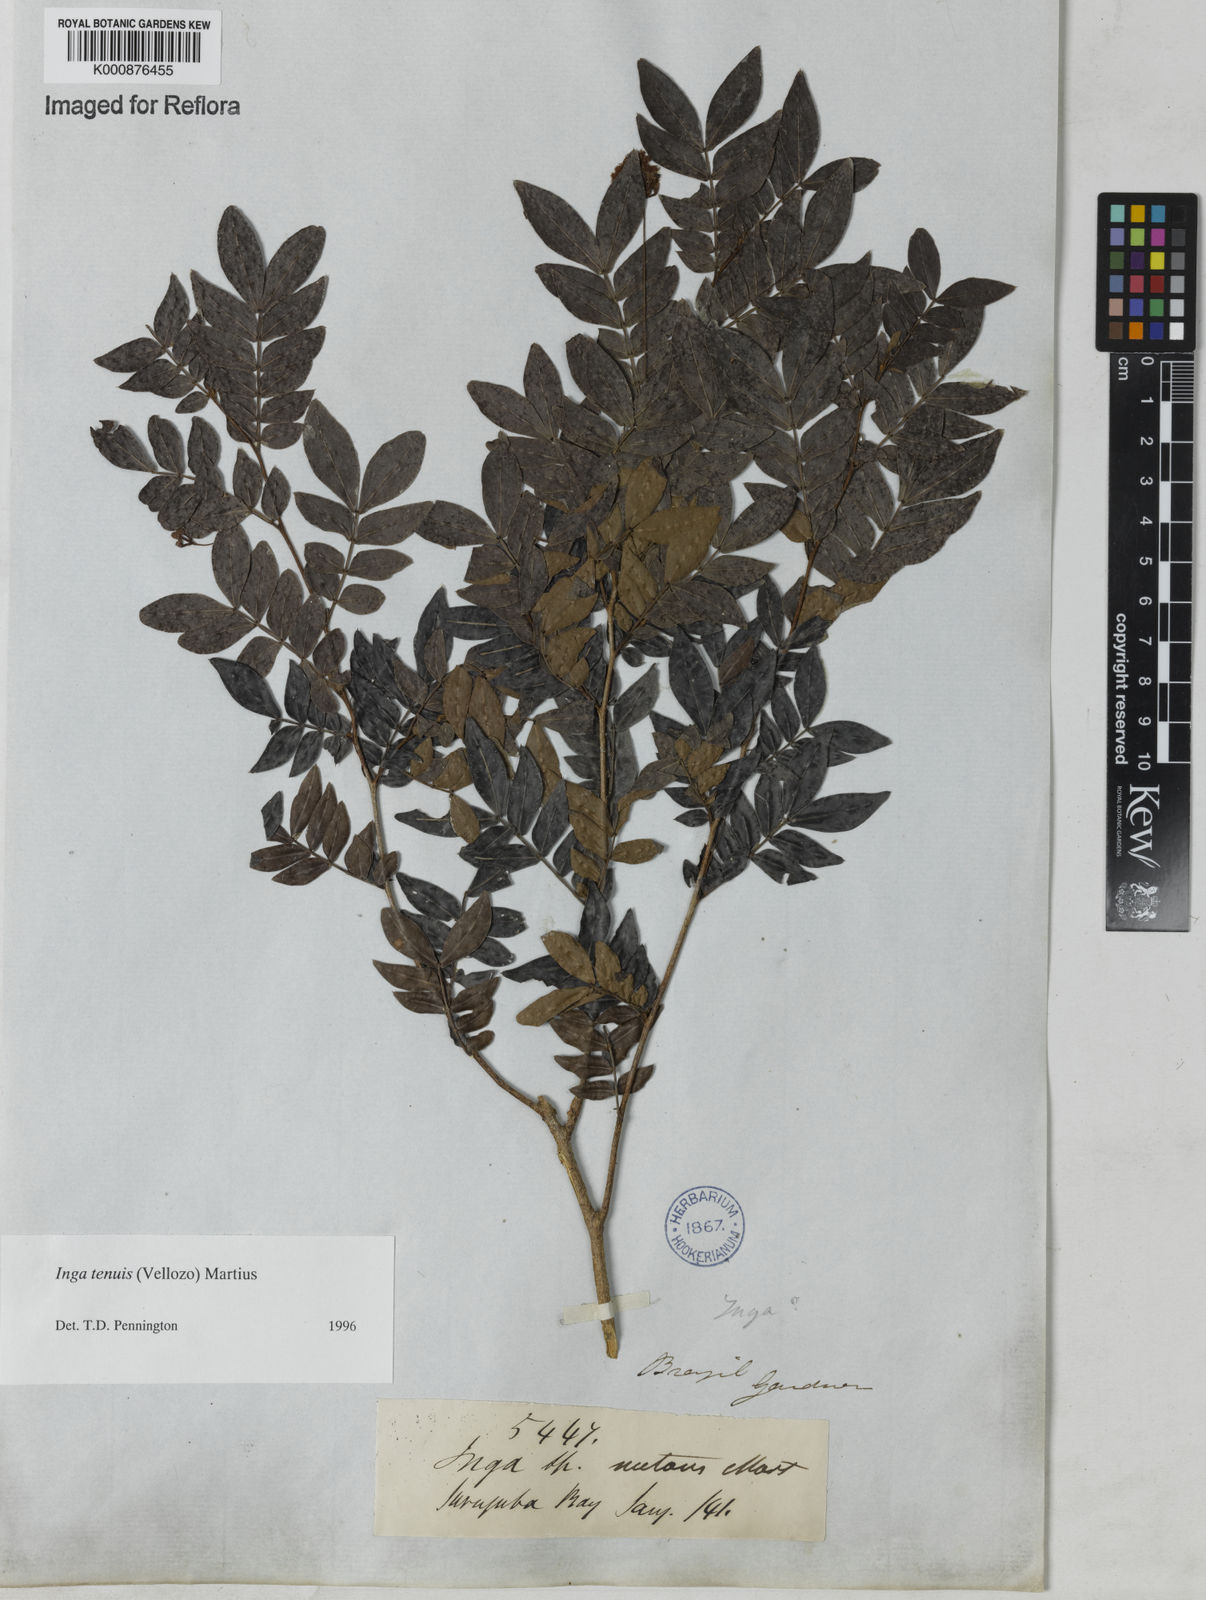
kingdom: Plantae
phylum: Tracheophyta
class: Magnoliopsida
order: Fabales
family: Fabaceae
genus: Inga
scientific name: Inga tenuis
